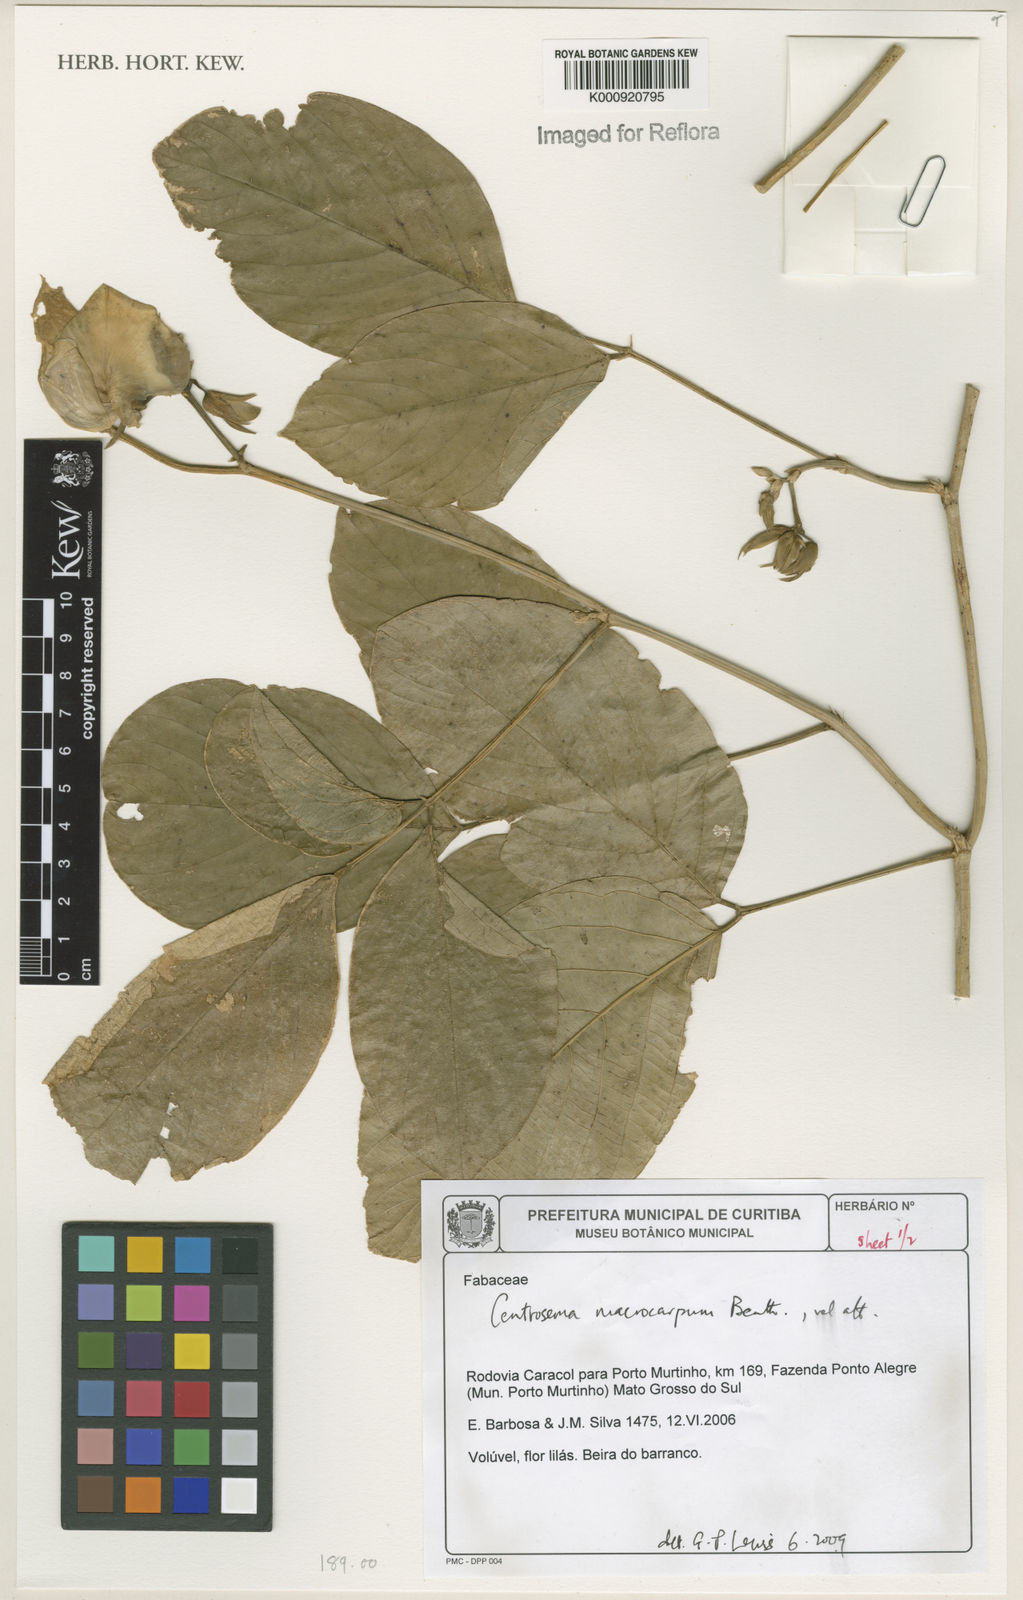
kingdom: Plantae
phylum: Tracheophyta
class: Magnoliopsida
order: Fabales
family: Fabaceae
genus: Centrosema
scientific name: Centrosema macrocarpum
